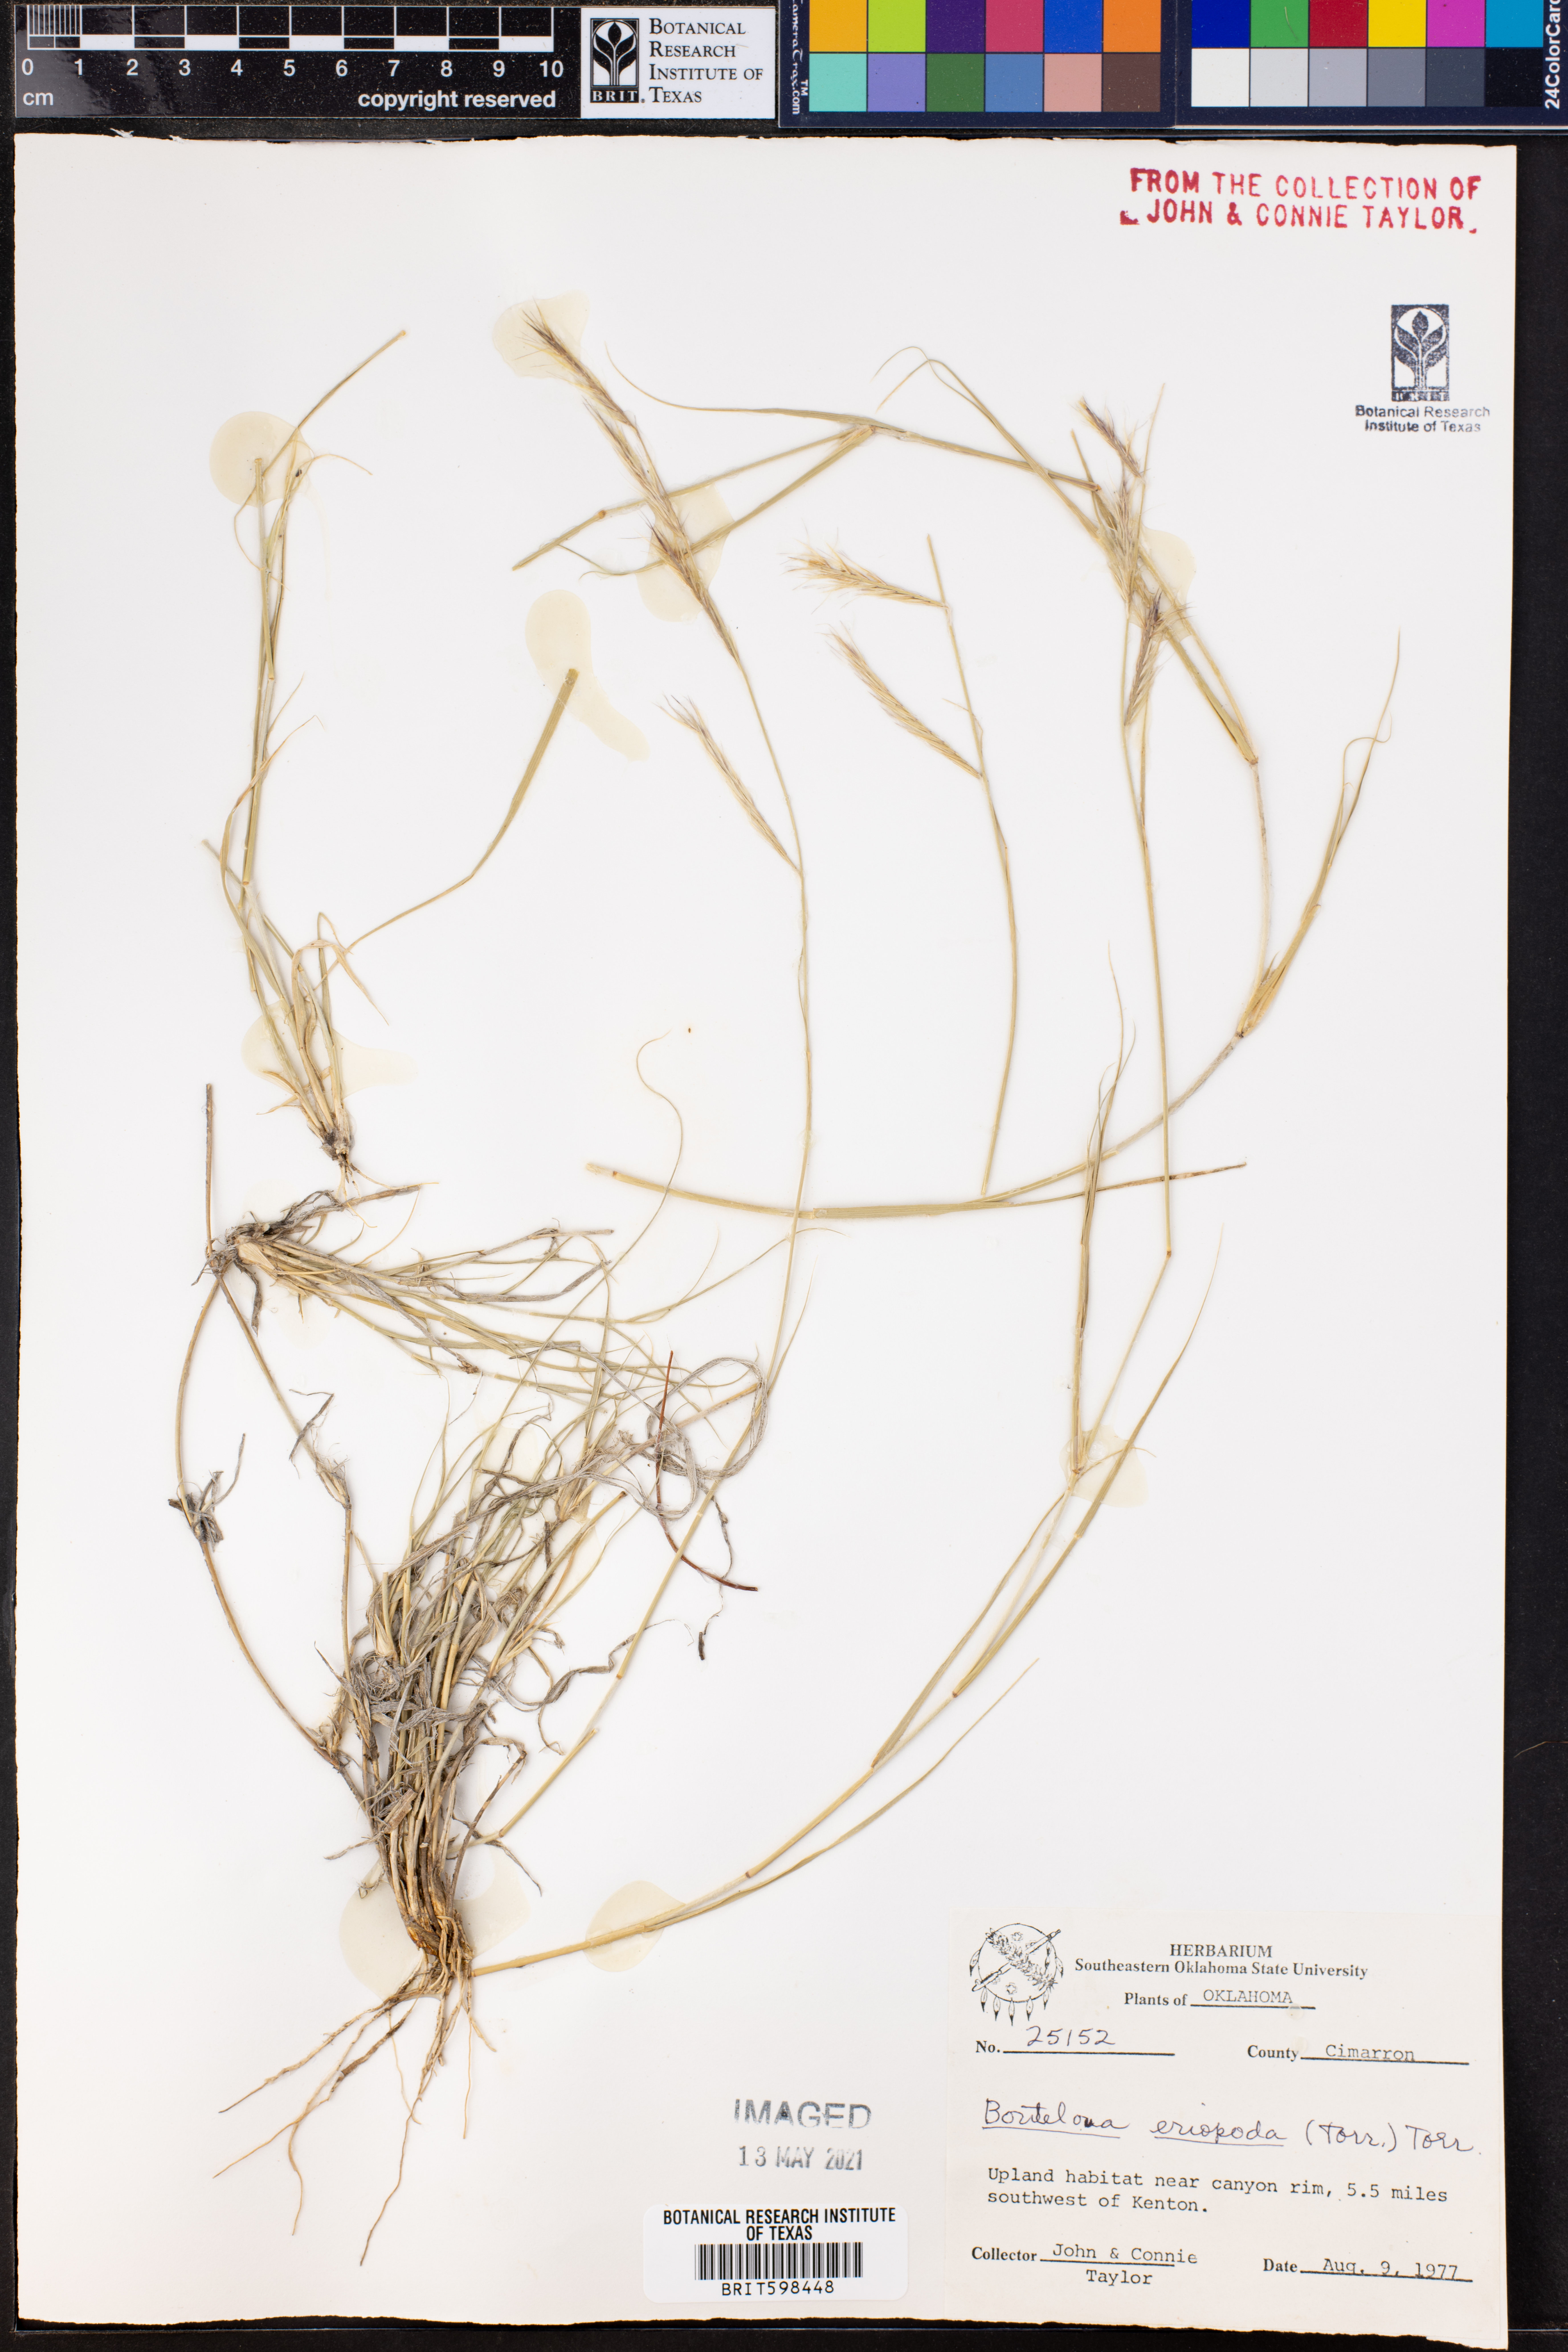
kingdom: Plantae
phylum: Tracheophyta
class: Liliopsida
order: Poales
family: Poaceae
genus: Bouteloua
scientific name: Bouteloua eriopoda
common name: Woolly foot grama
